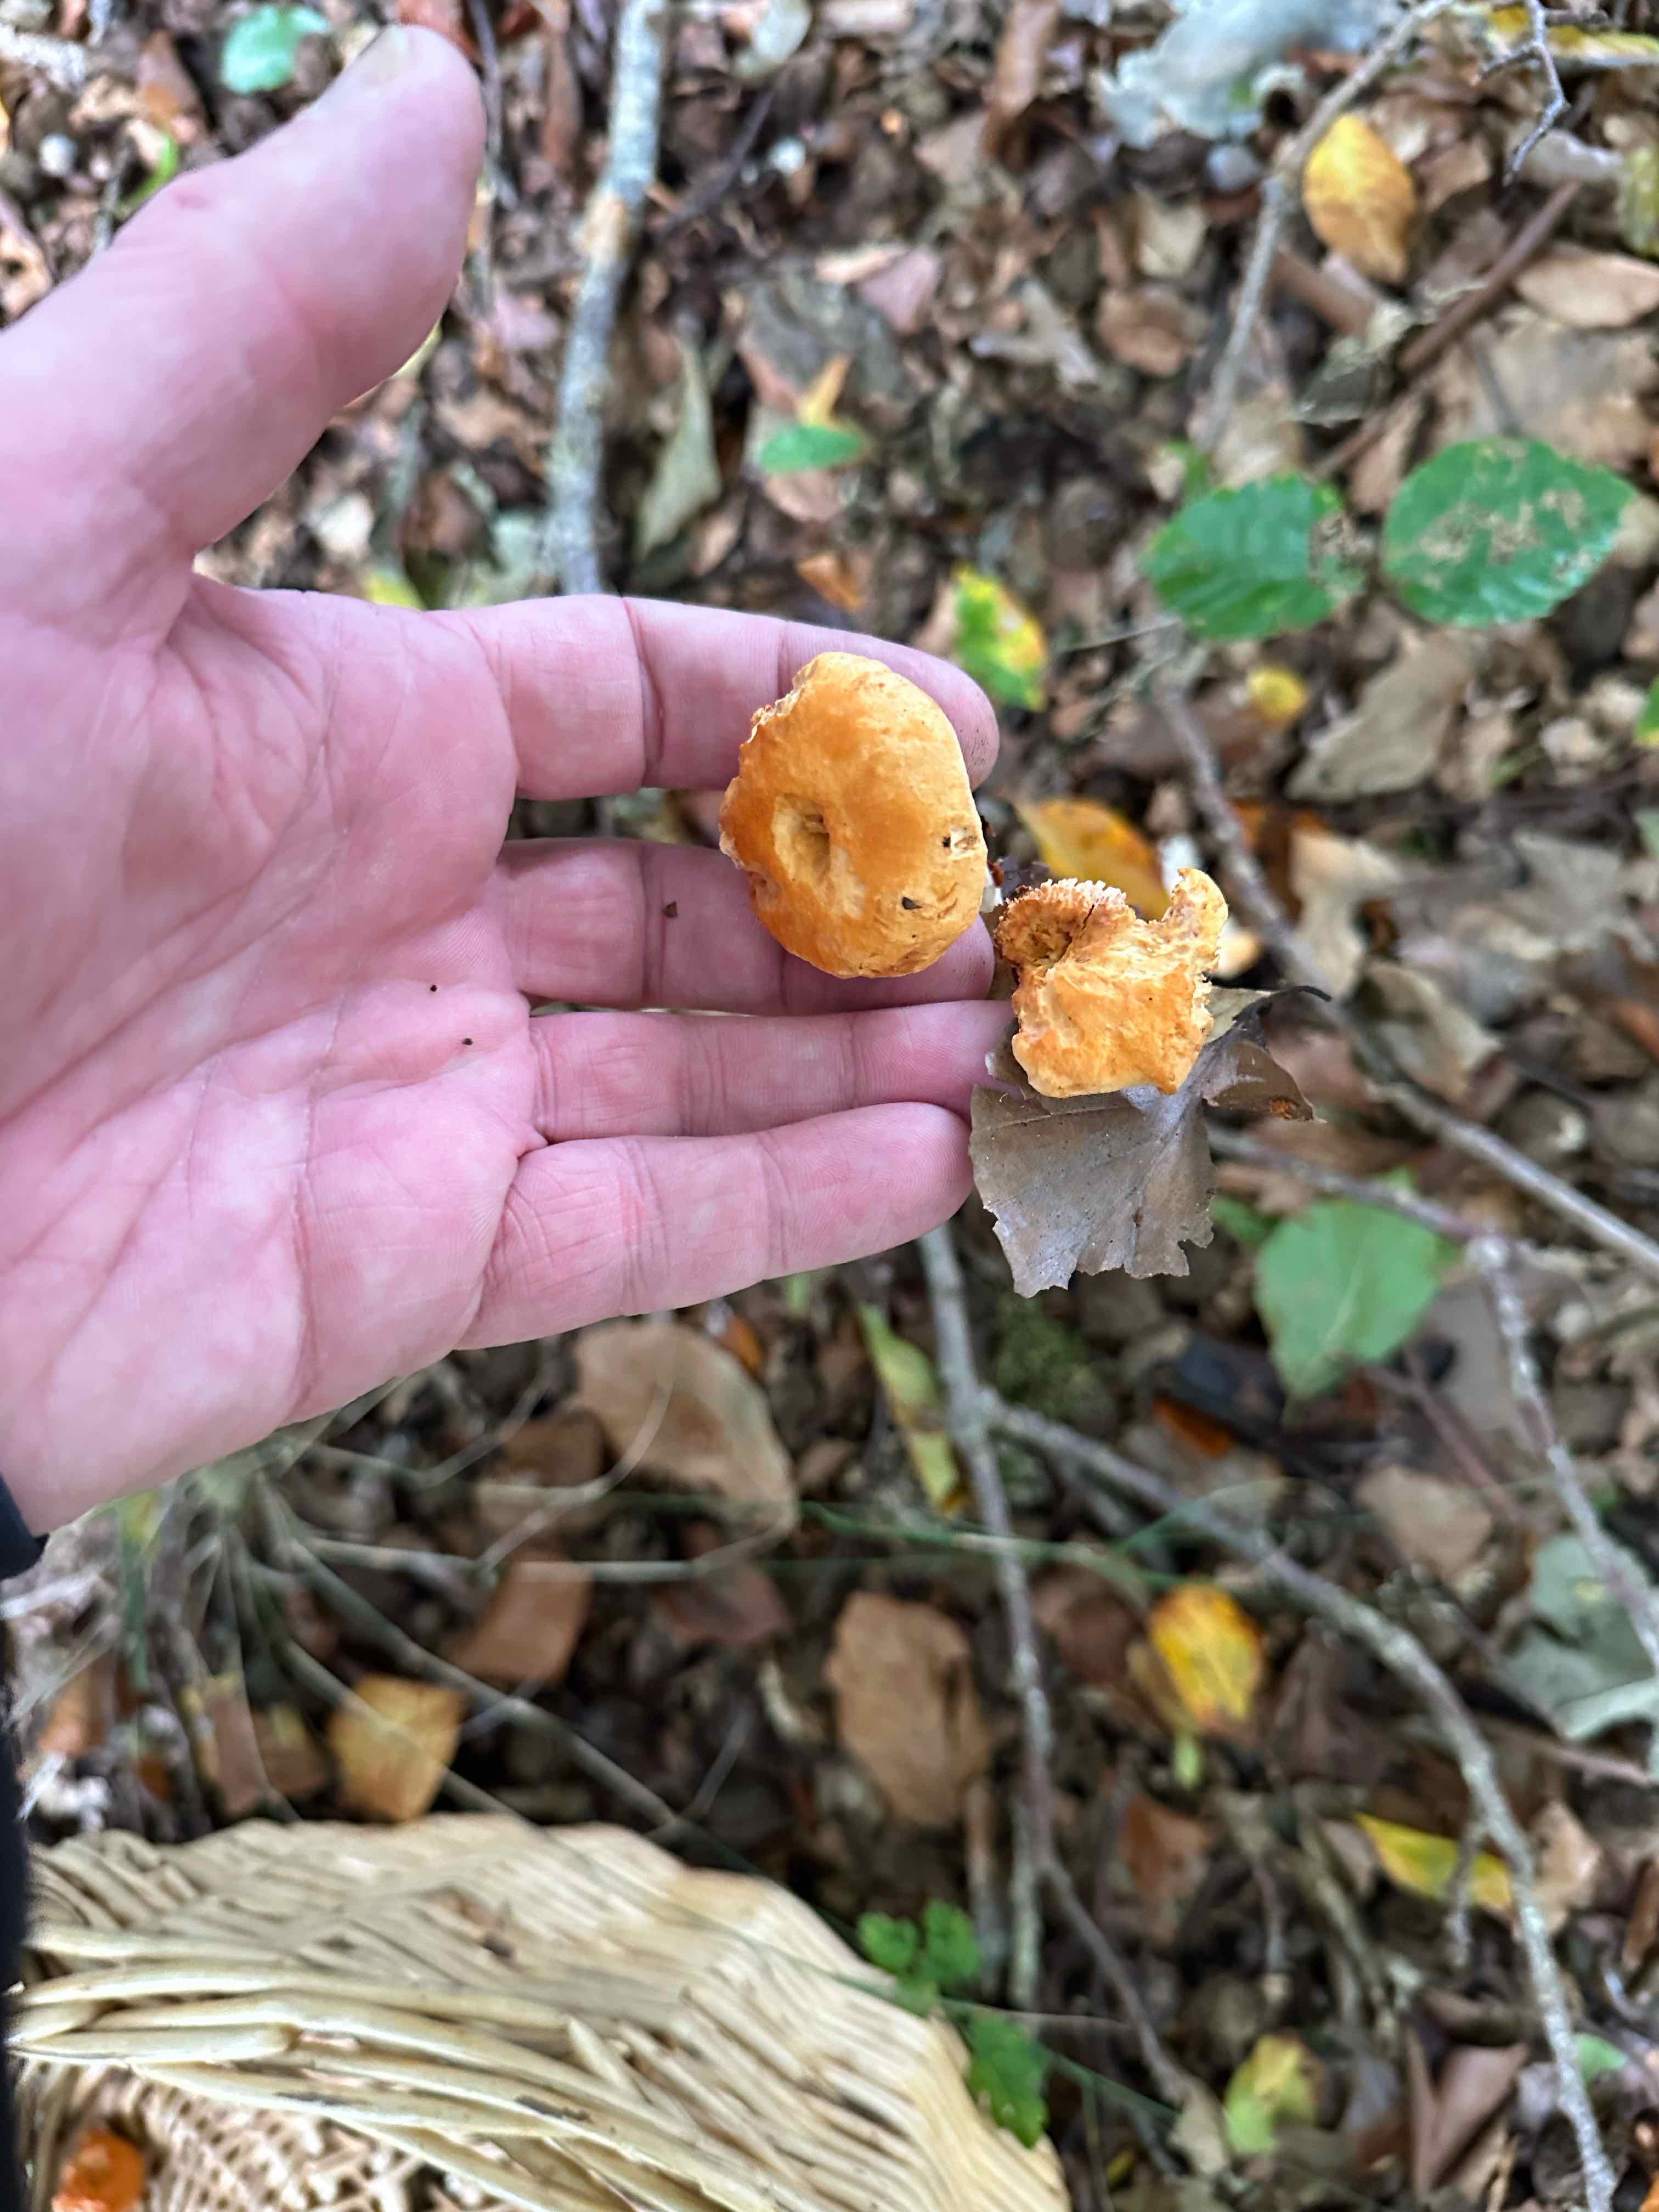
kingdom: Fungi
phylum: Basidiomycota
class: Agaricomycetes
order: Cantharellales
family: Hydnaceae
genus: Hydnum
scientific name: Hydnum
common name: pigsvamp
